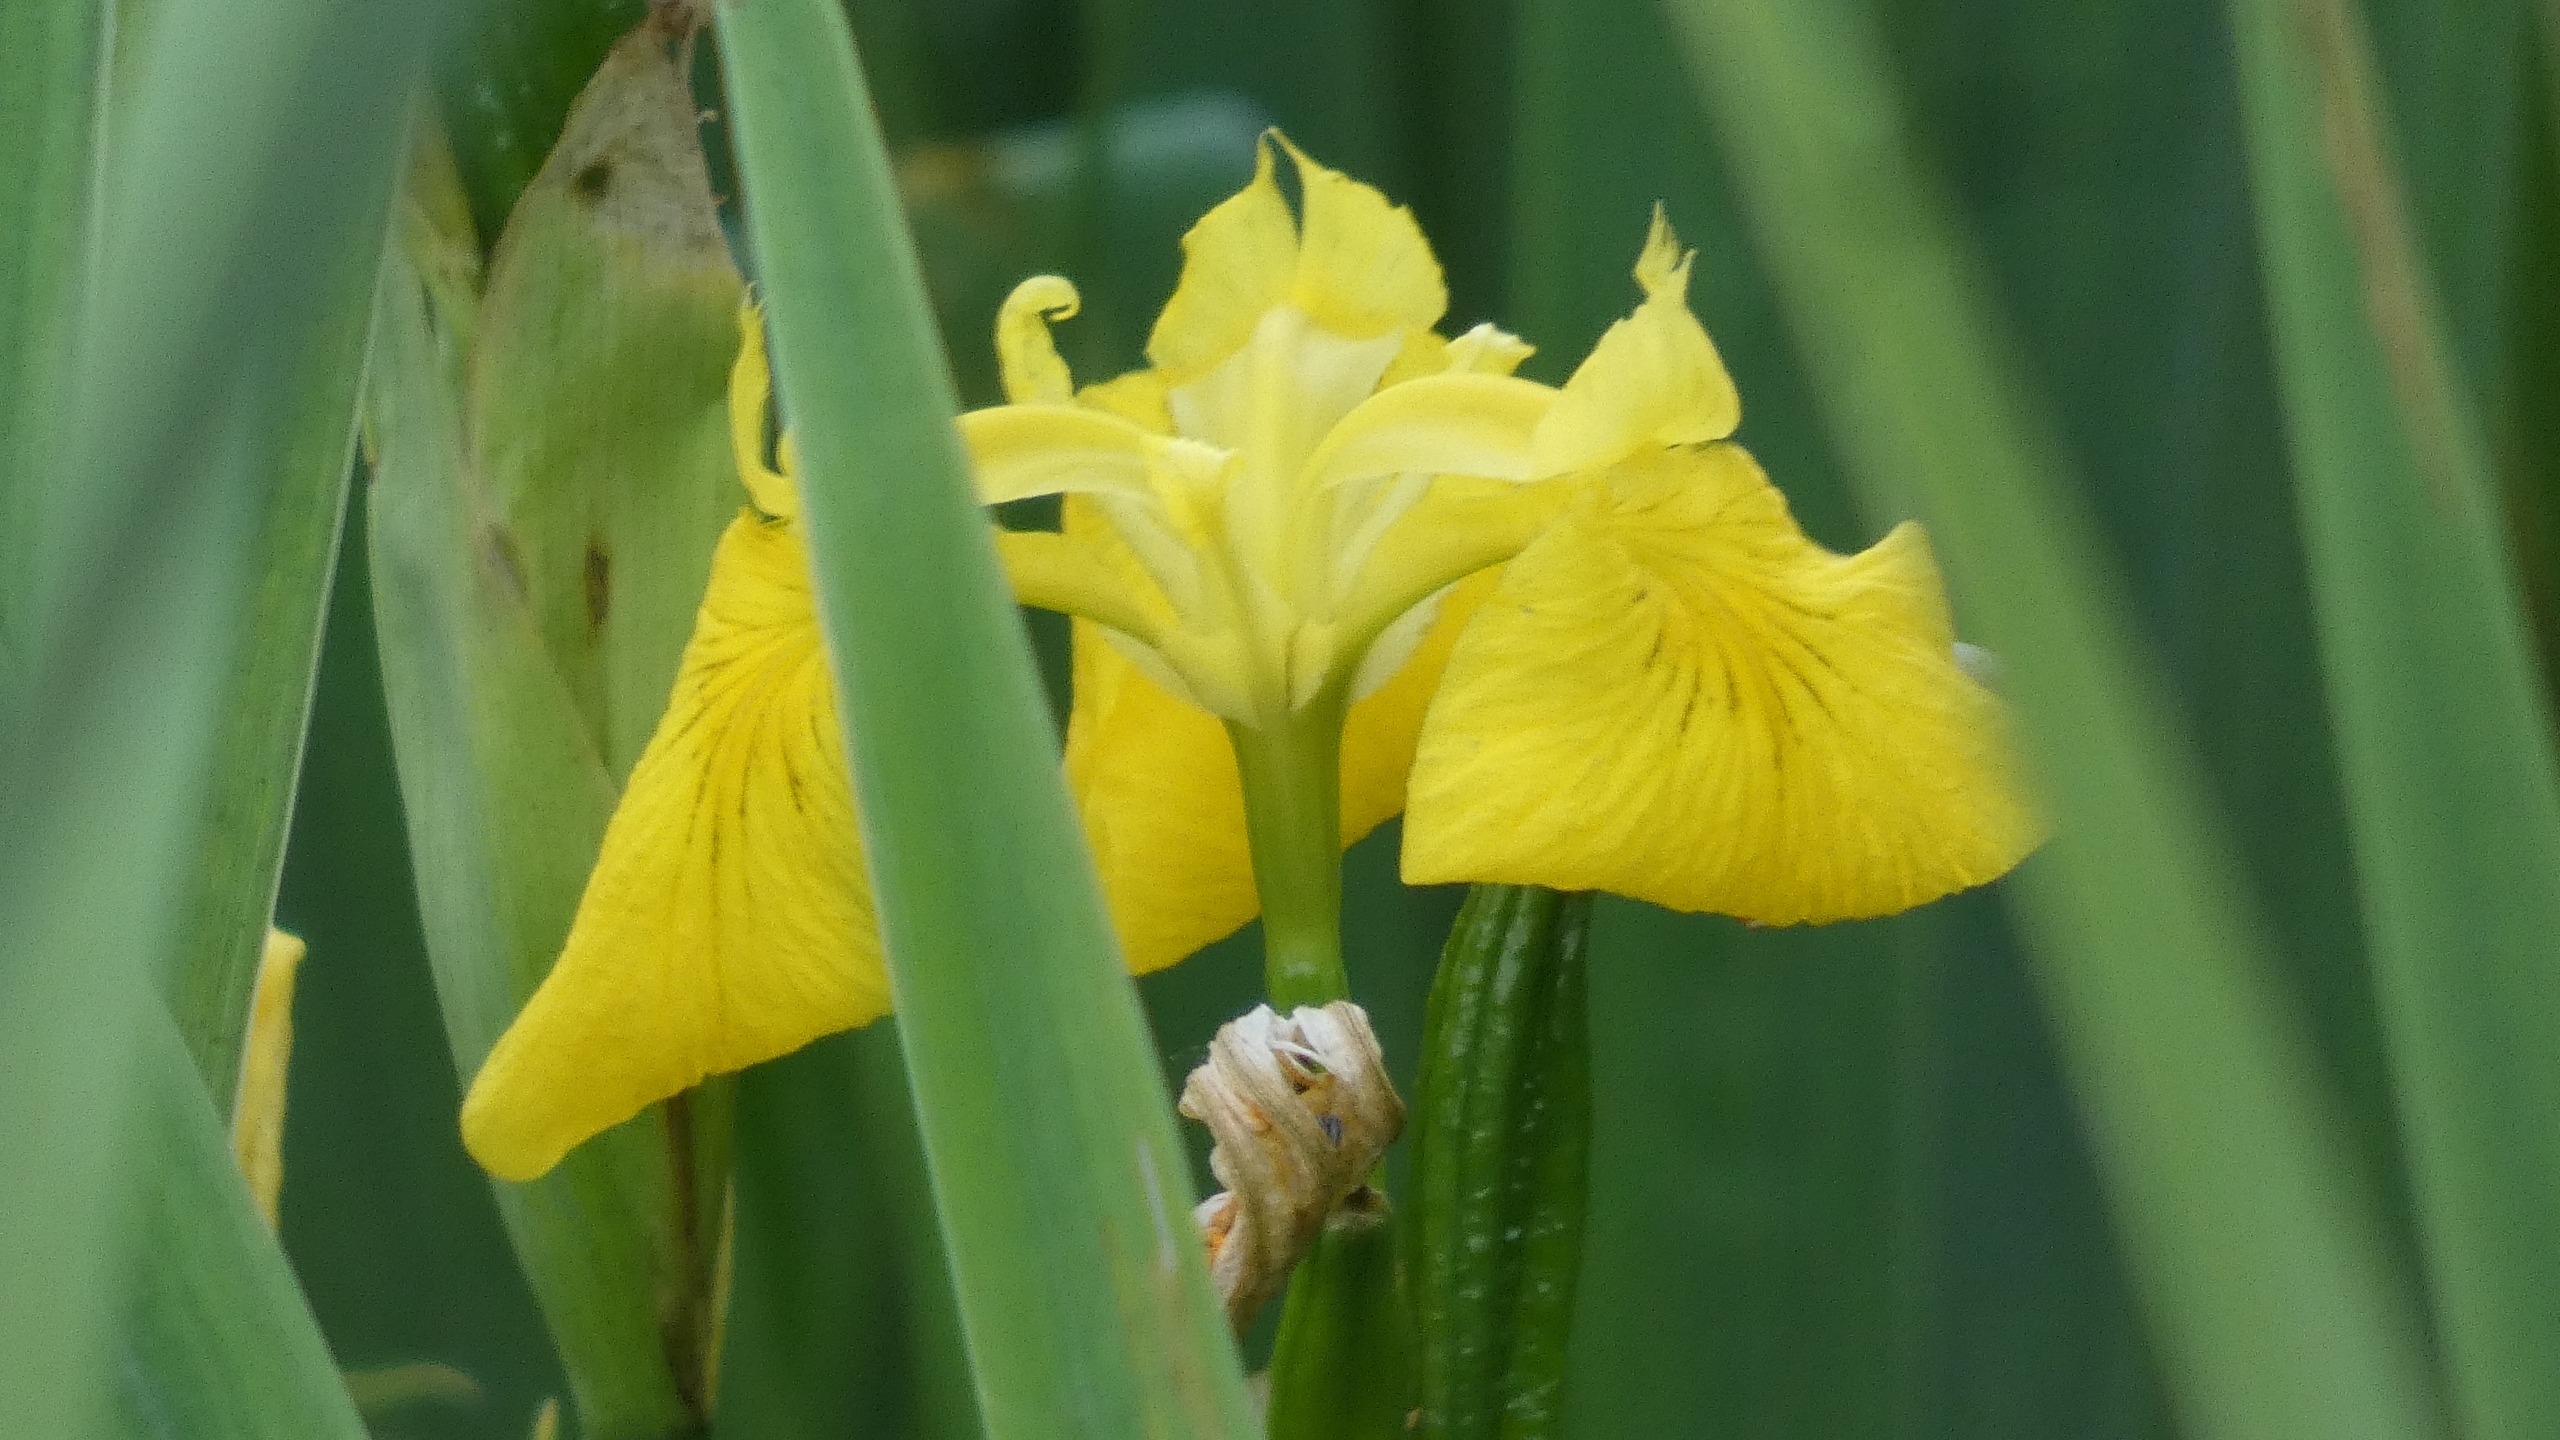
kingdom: Plantae
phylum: Tracheophyta
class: Liliopsida
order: Asparagales
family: Iridaceae
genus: Iris
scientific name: Iris pseudacorus
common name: Gul iris
